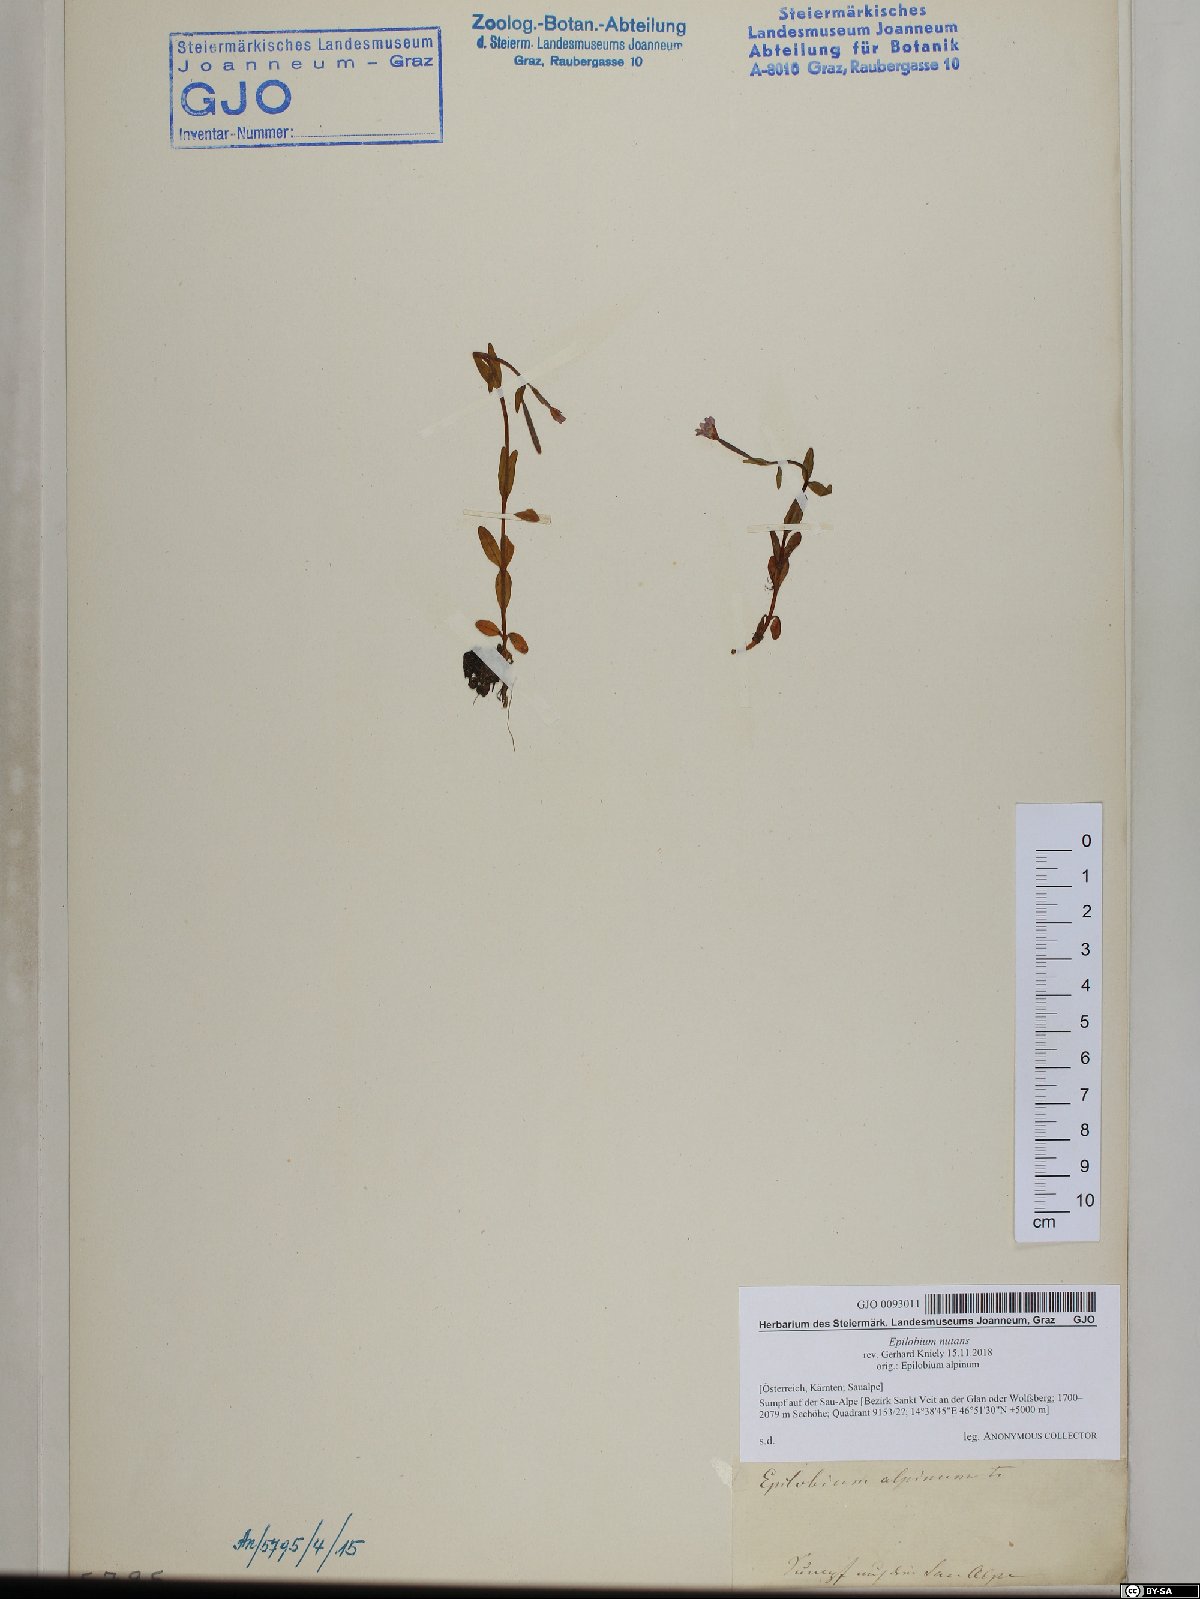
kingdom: Plantae
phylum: Tracheophyta
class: Magnoliopsida
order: Myrtales
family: Onagraceae
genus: Epilobium
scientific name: Epilobium nutans
